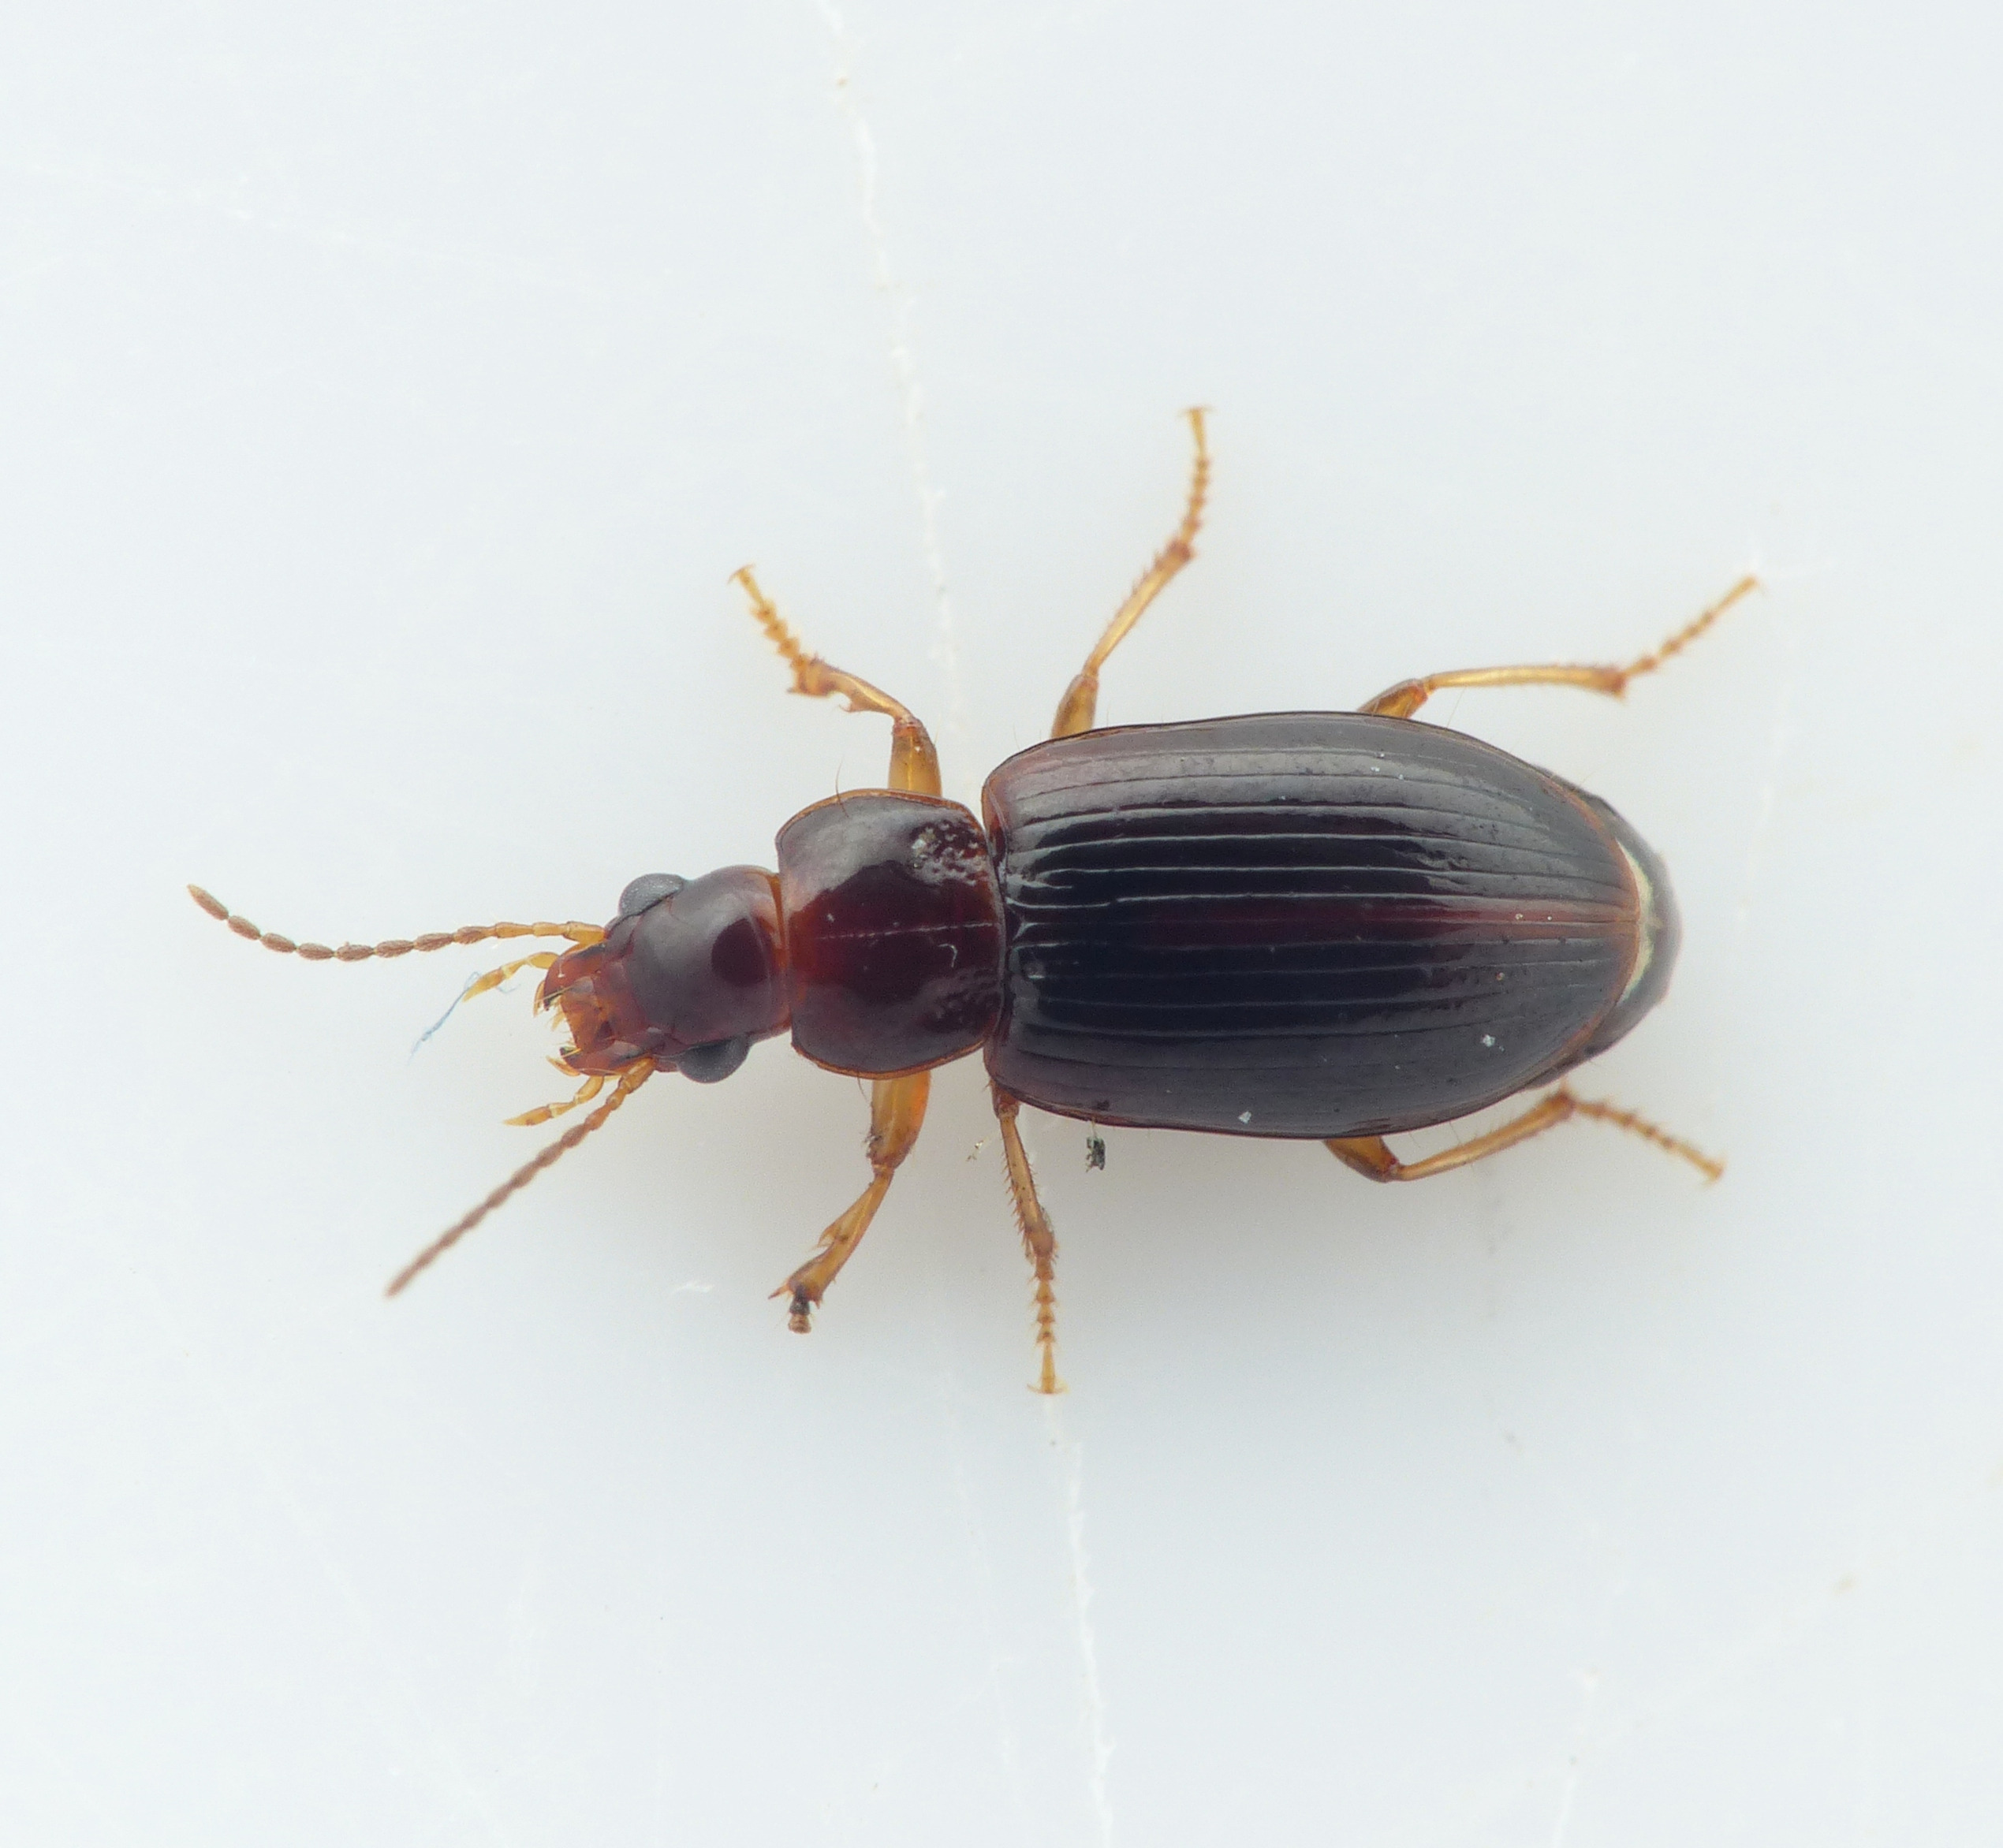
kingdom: Animalia
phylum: Arthropoda
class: Insecta
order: Coleoptera
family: Carabidae
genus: Bradycellus
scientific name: Bradycellus csikii
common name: Mørk brunløber
